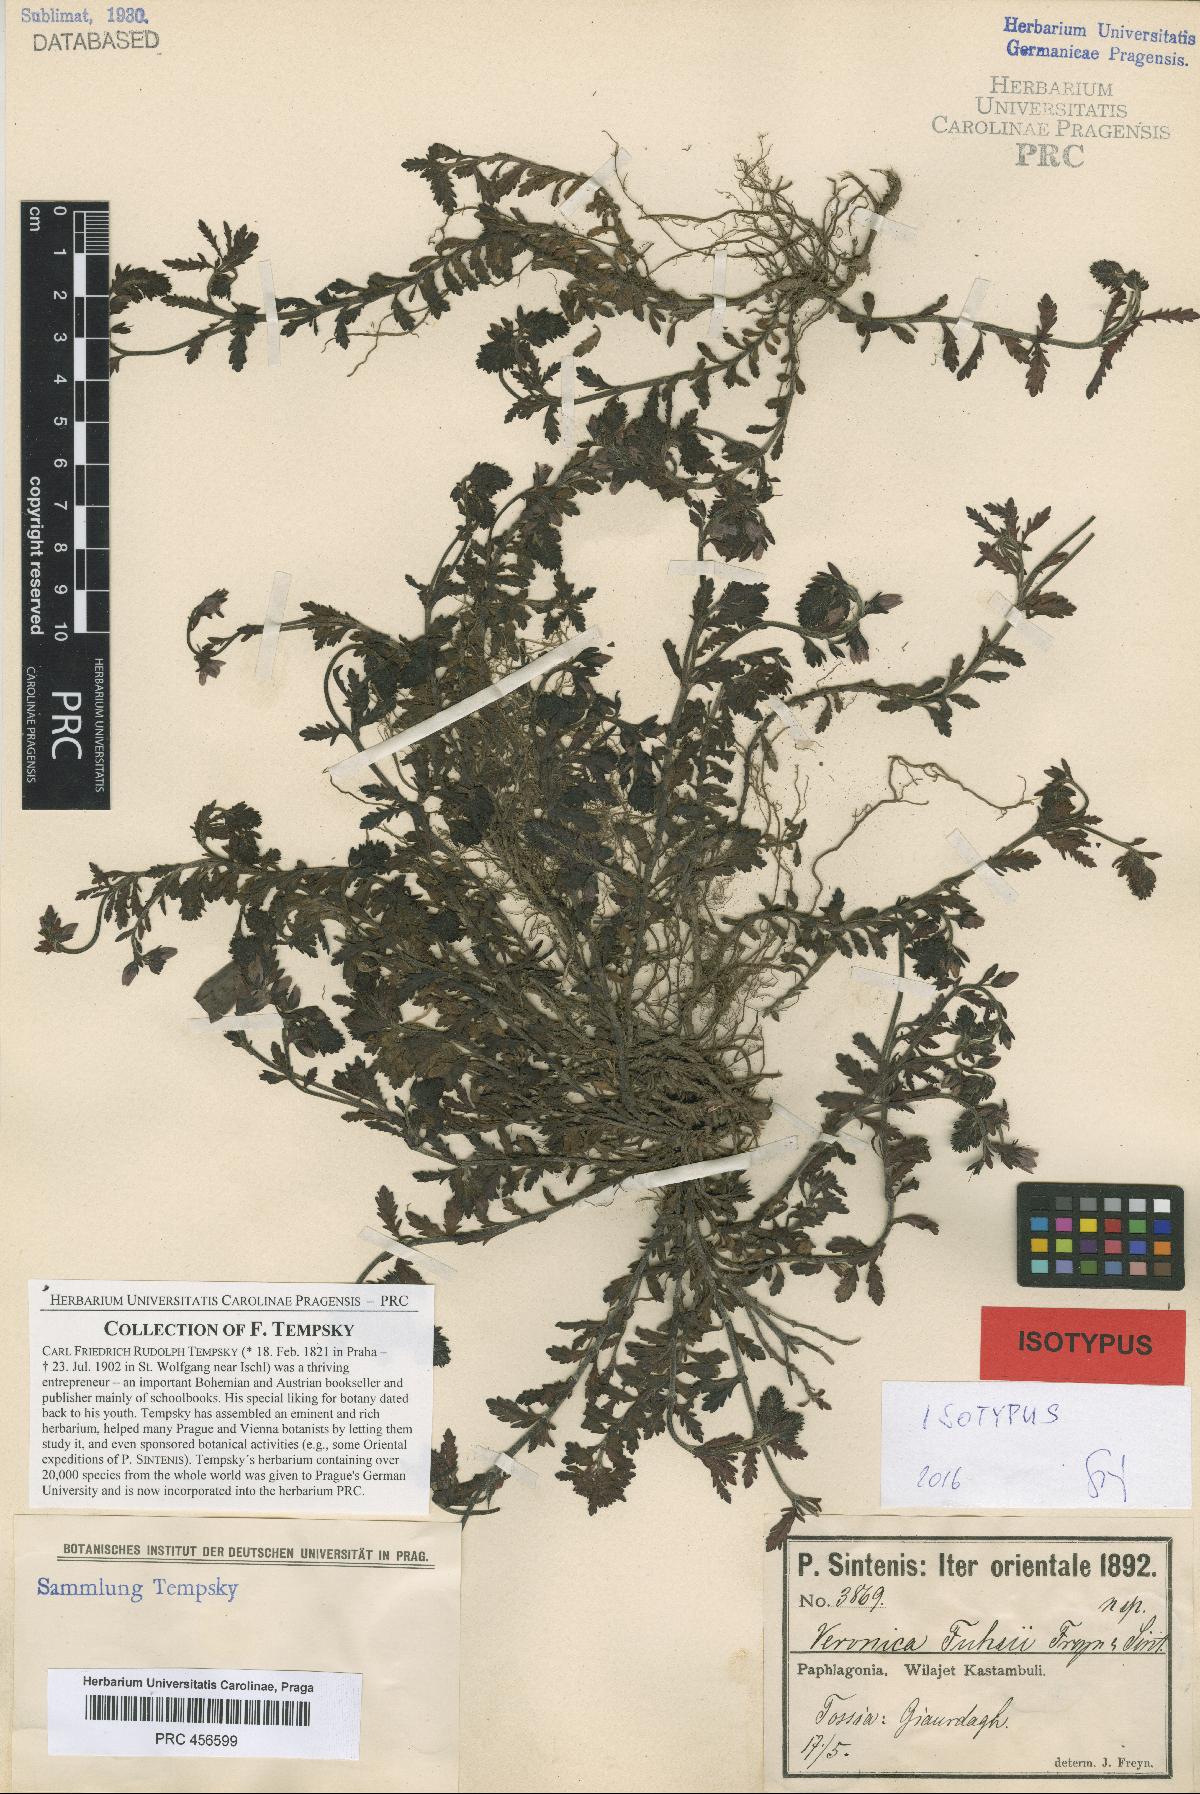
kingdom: Plantae
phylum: Tracheophyta
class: Magnoliopsida
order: Lamiales
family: Plantaginaceae
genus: Veronica
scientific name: Veronica fuhsii
